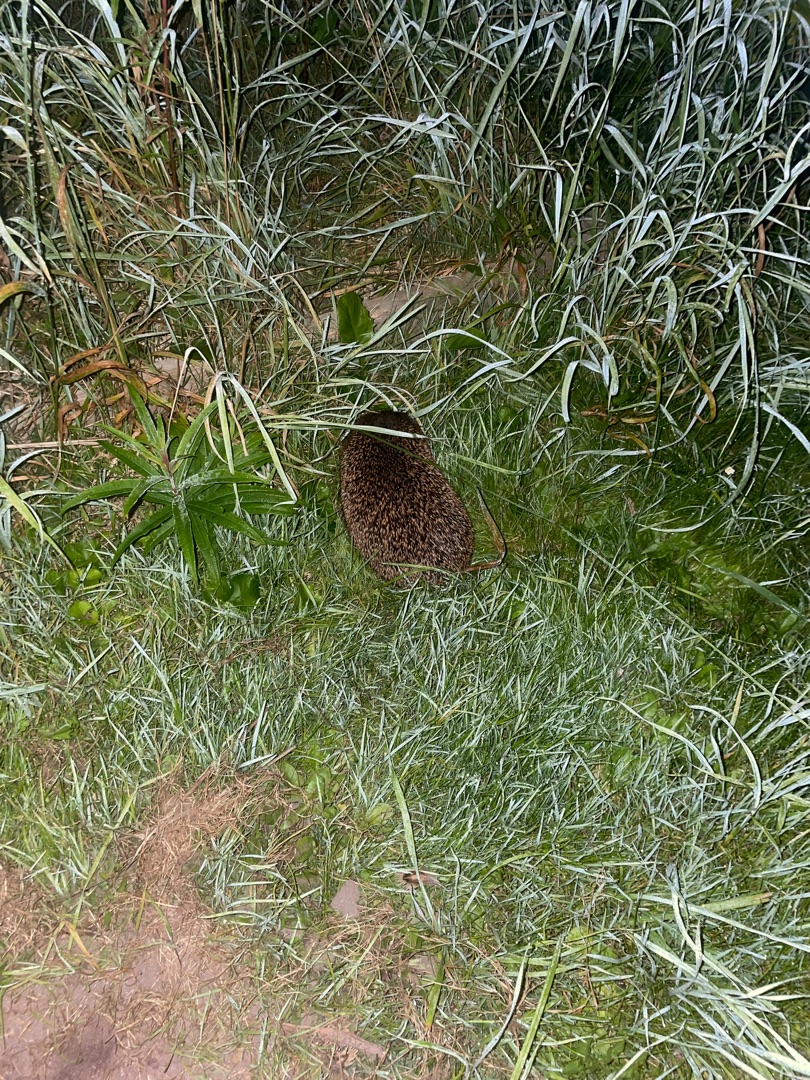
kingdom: Animalia
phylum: Chordata
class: Mammalia
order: Erinaceomorpha
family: Erinaceidae
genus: Erinaceus
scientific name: Erinaceus europaeus
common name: Pindsvin
